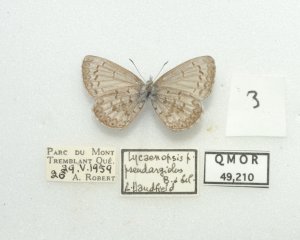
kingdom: Animalia
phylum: Arthropoda
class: Insecta
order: Lepidoptera
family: Lycaenidae
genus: Celastrina
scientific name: Celastrina lucia
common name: Northern Spring Azure
